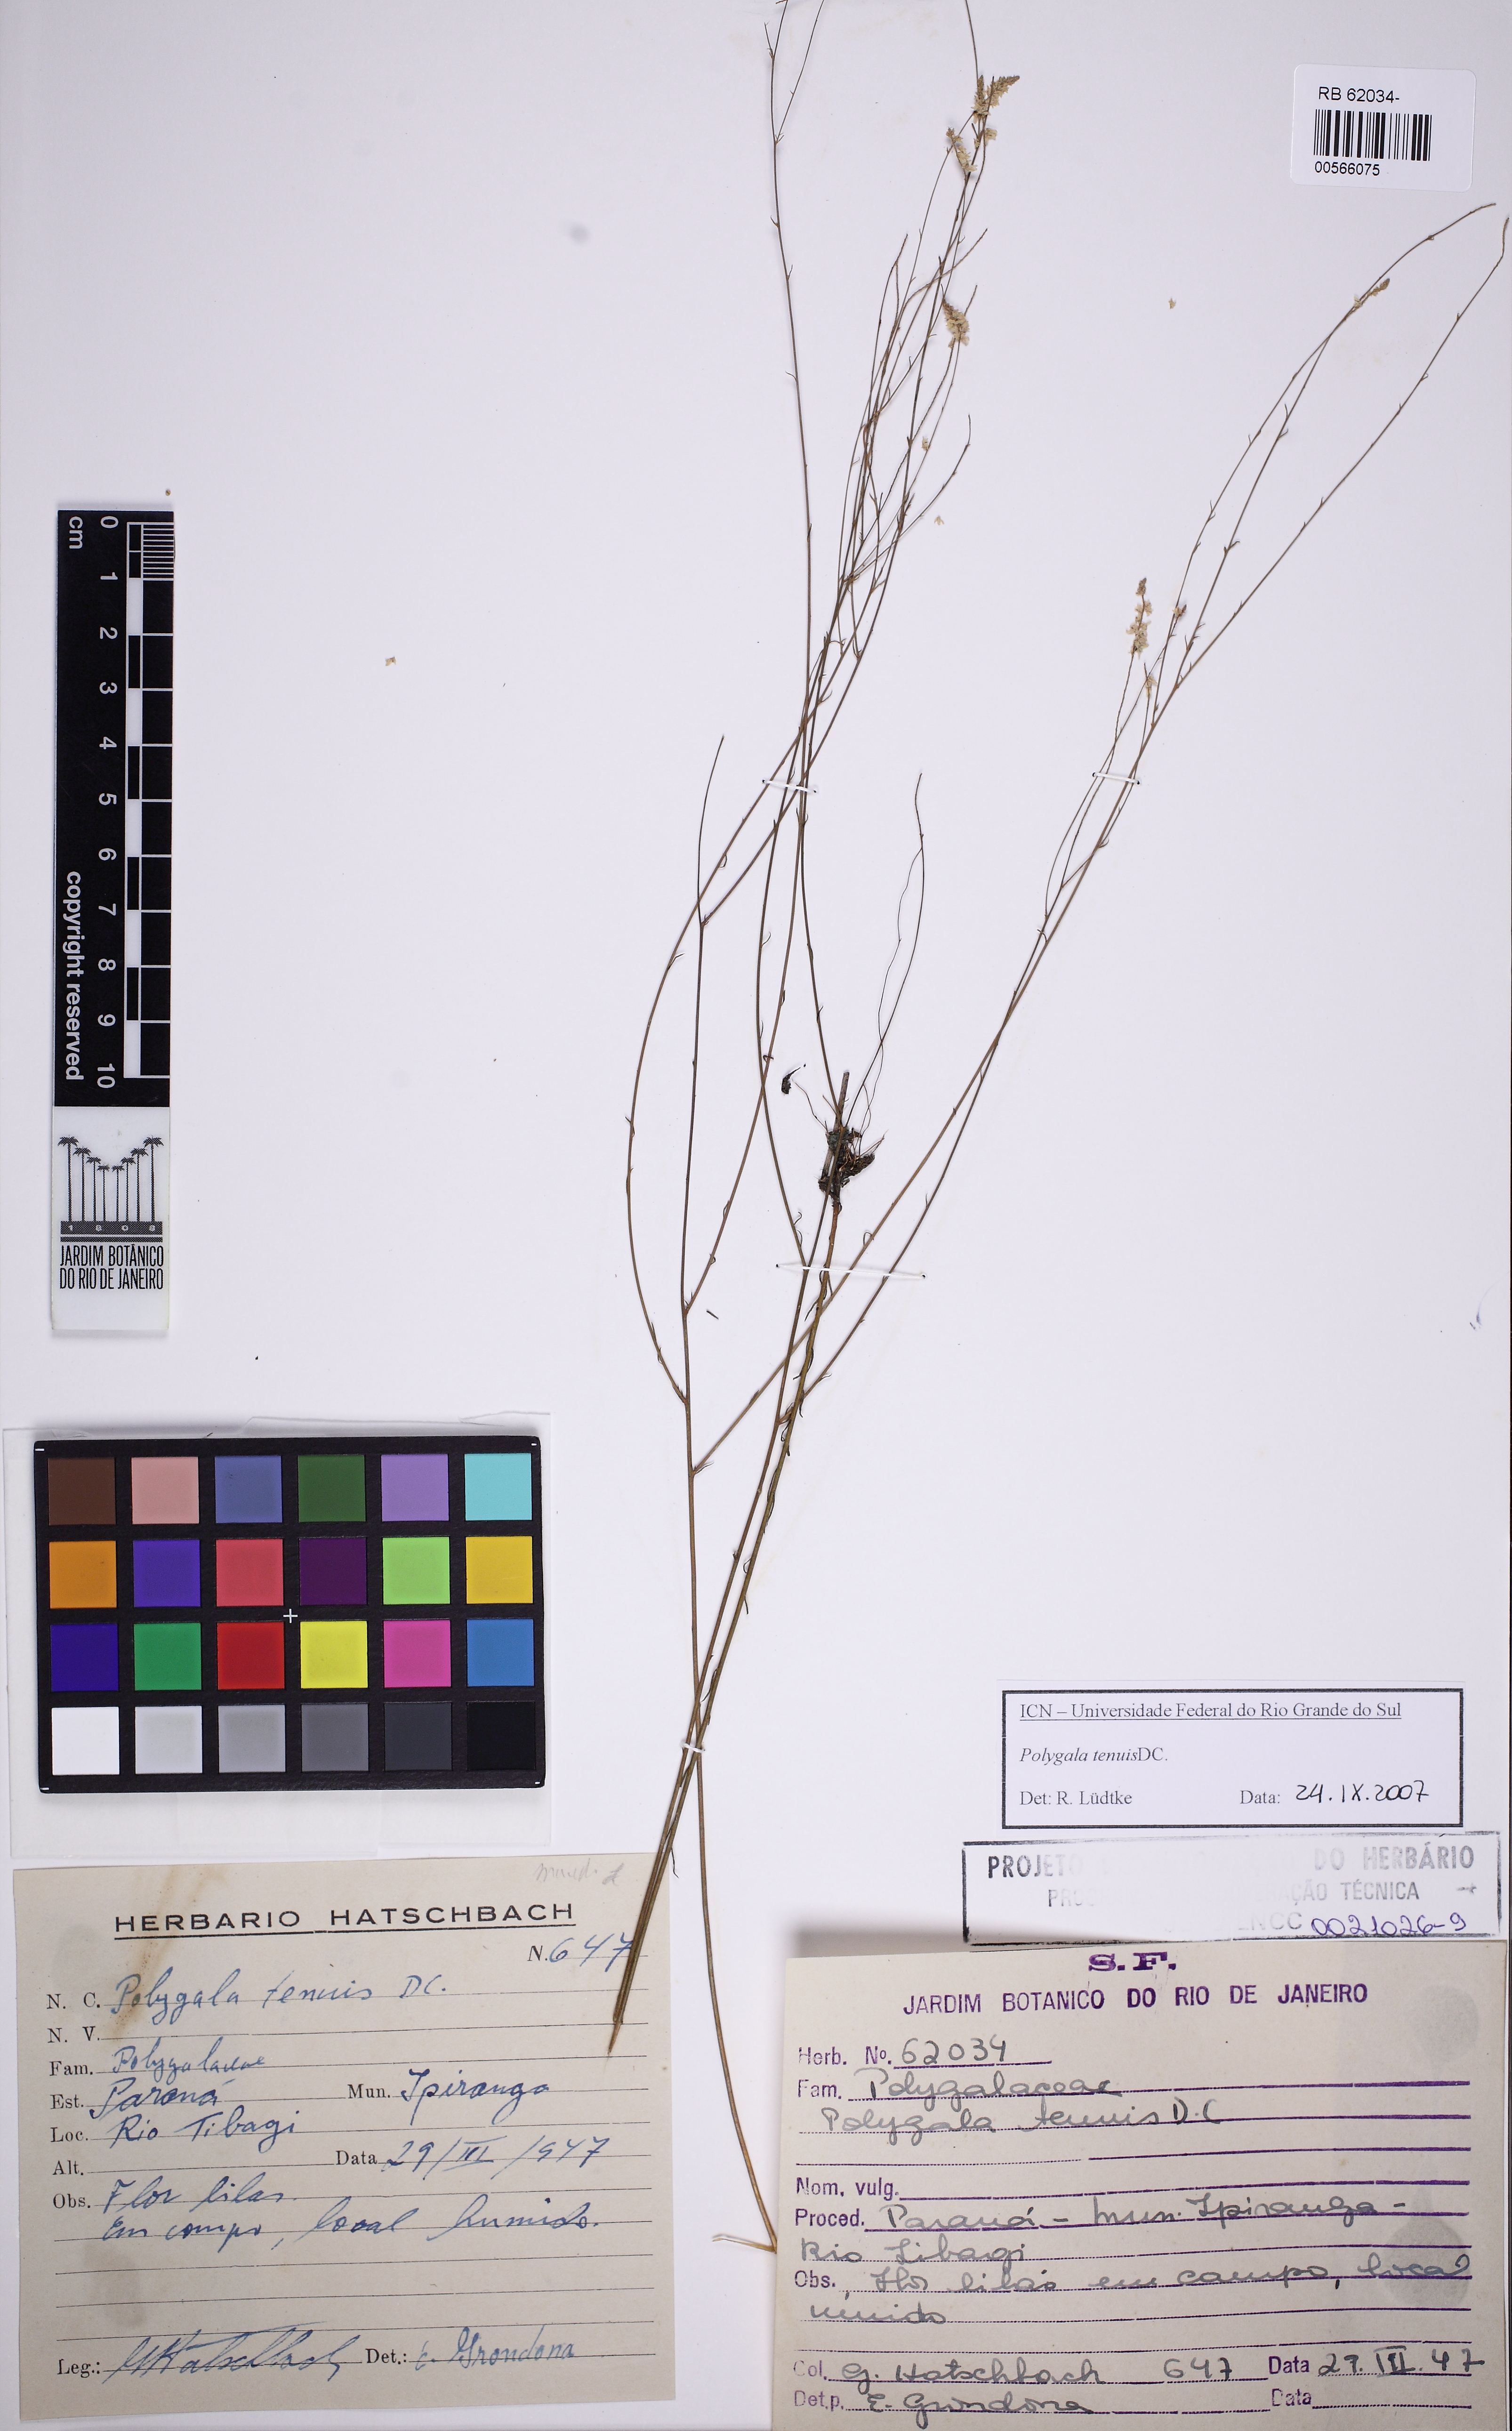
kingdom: Plantae
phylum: Tracheophyta
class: Magnoliopsida
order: Fabales
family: Polygalaceae
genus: Polygala
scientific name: Polygala tenuis
